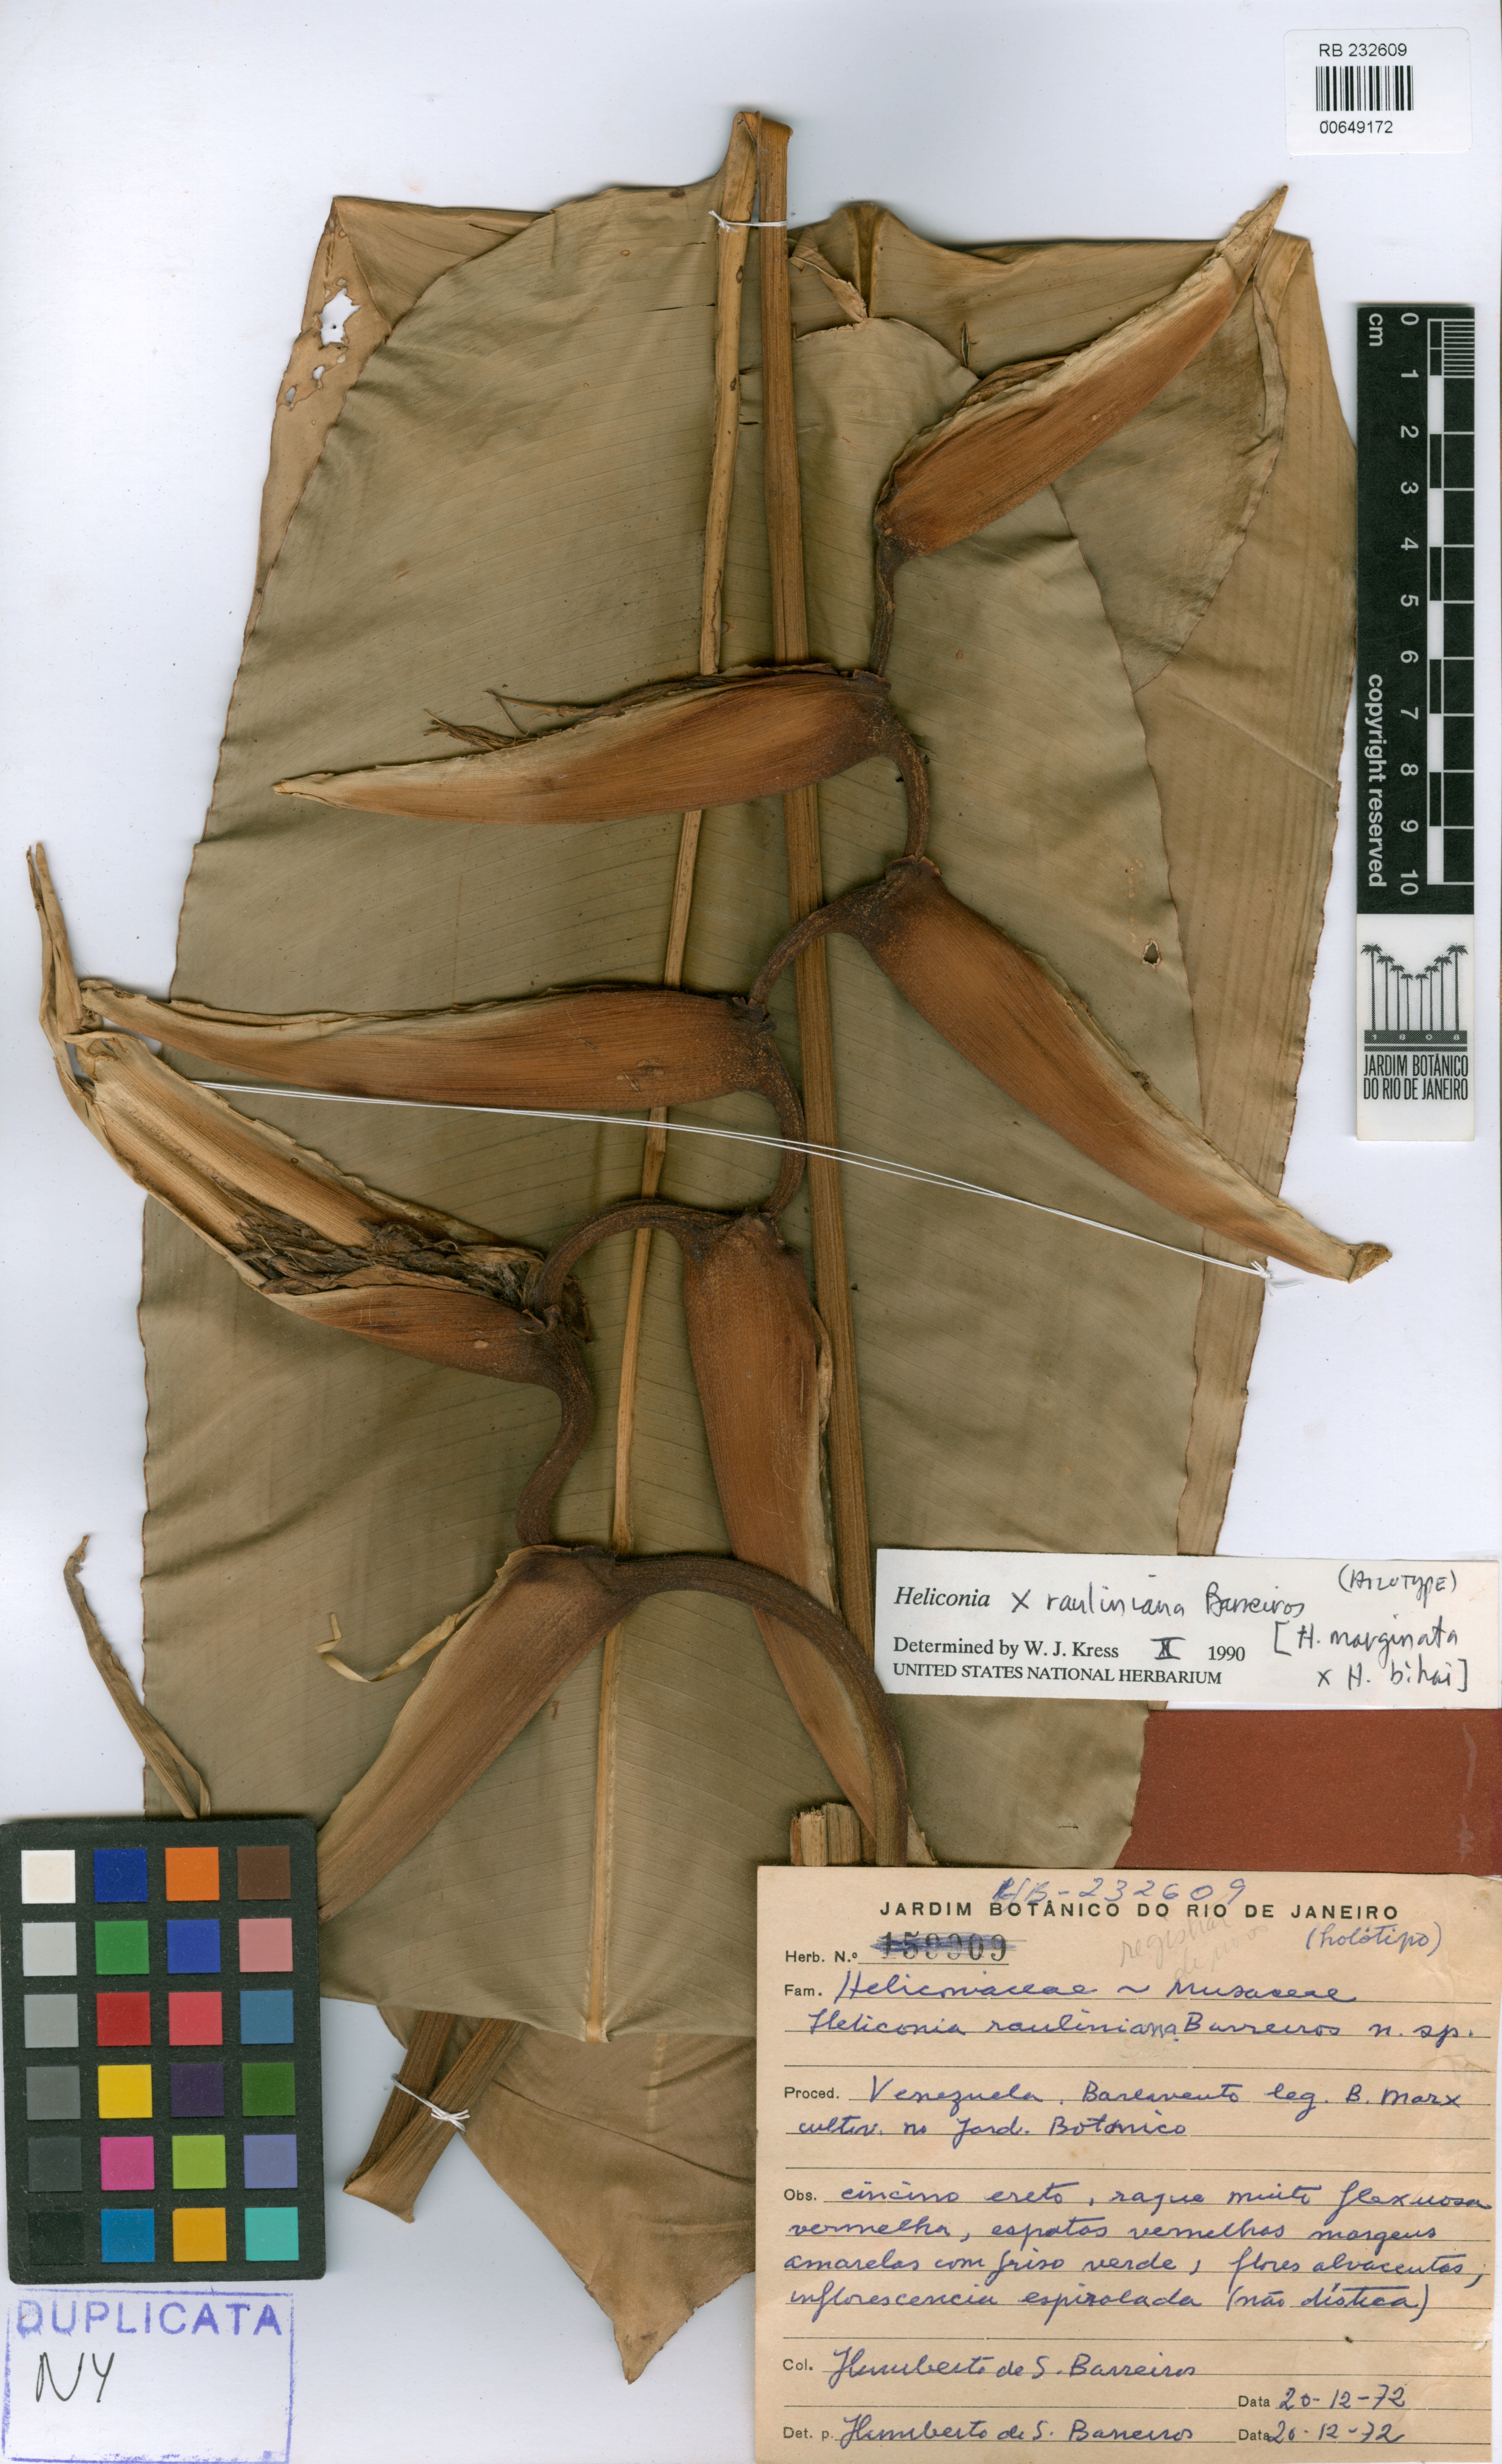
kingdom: Plantae
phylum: Tracheophyta
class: Liliopsida
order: Zingiberales
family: Heliconiaceae
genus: Heliconia
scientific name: Heliconia rauliniana
